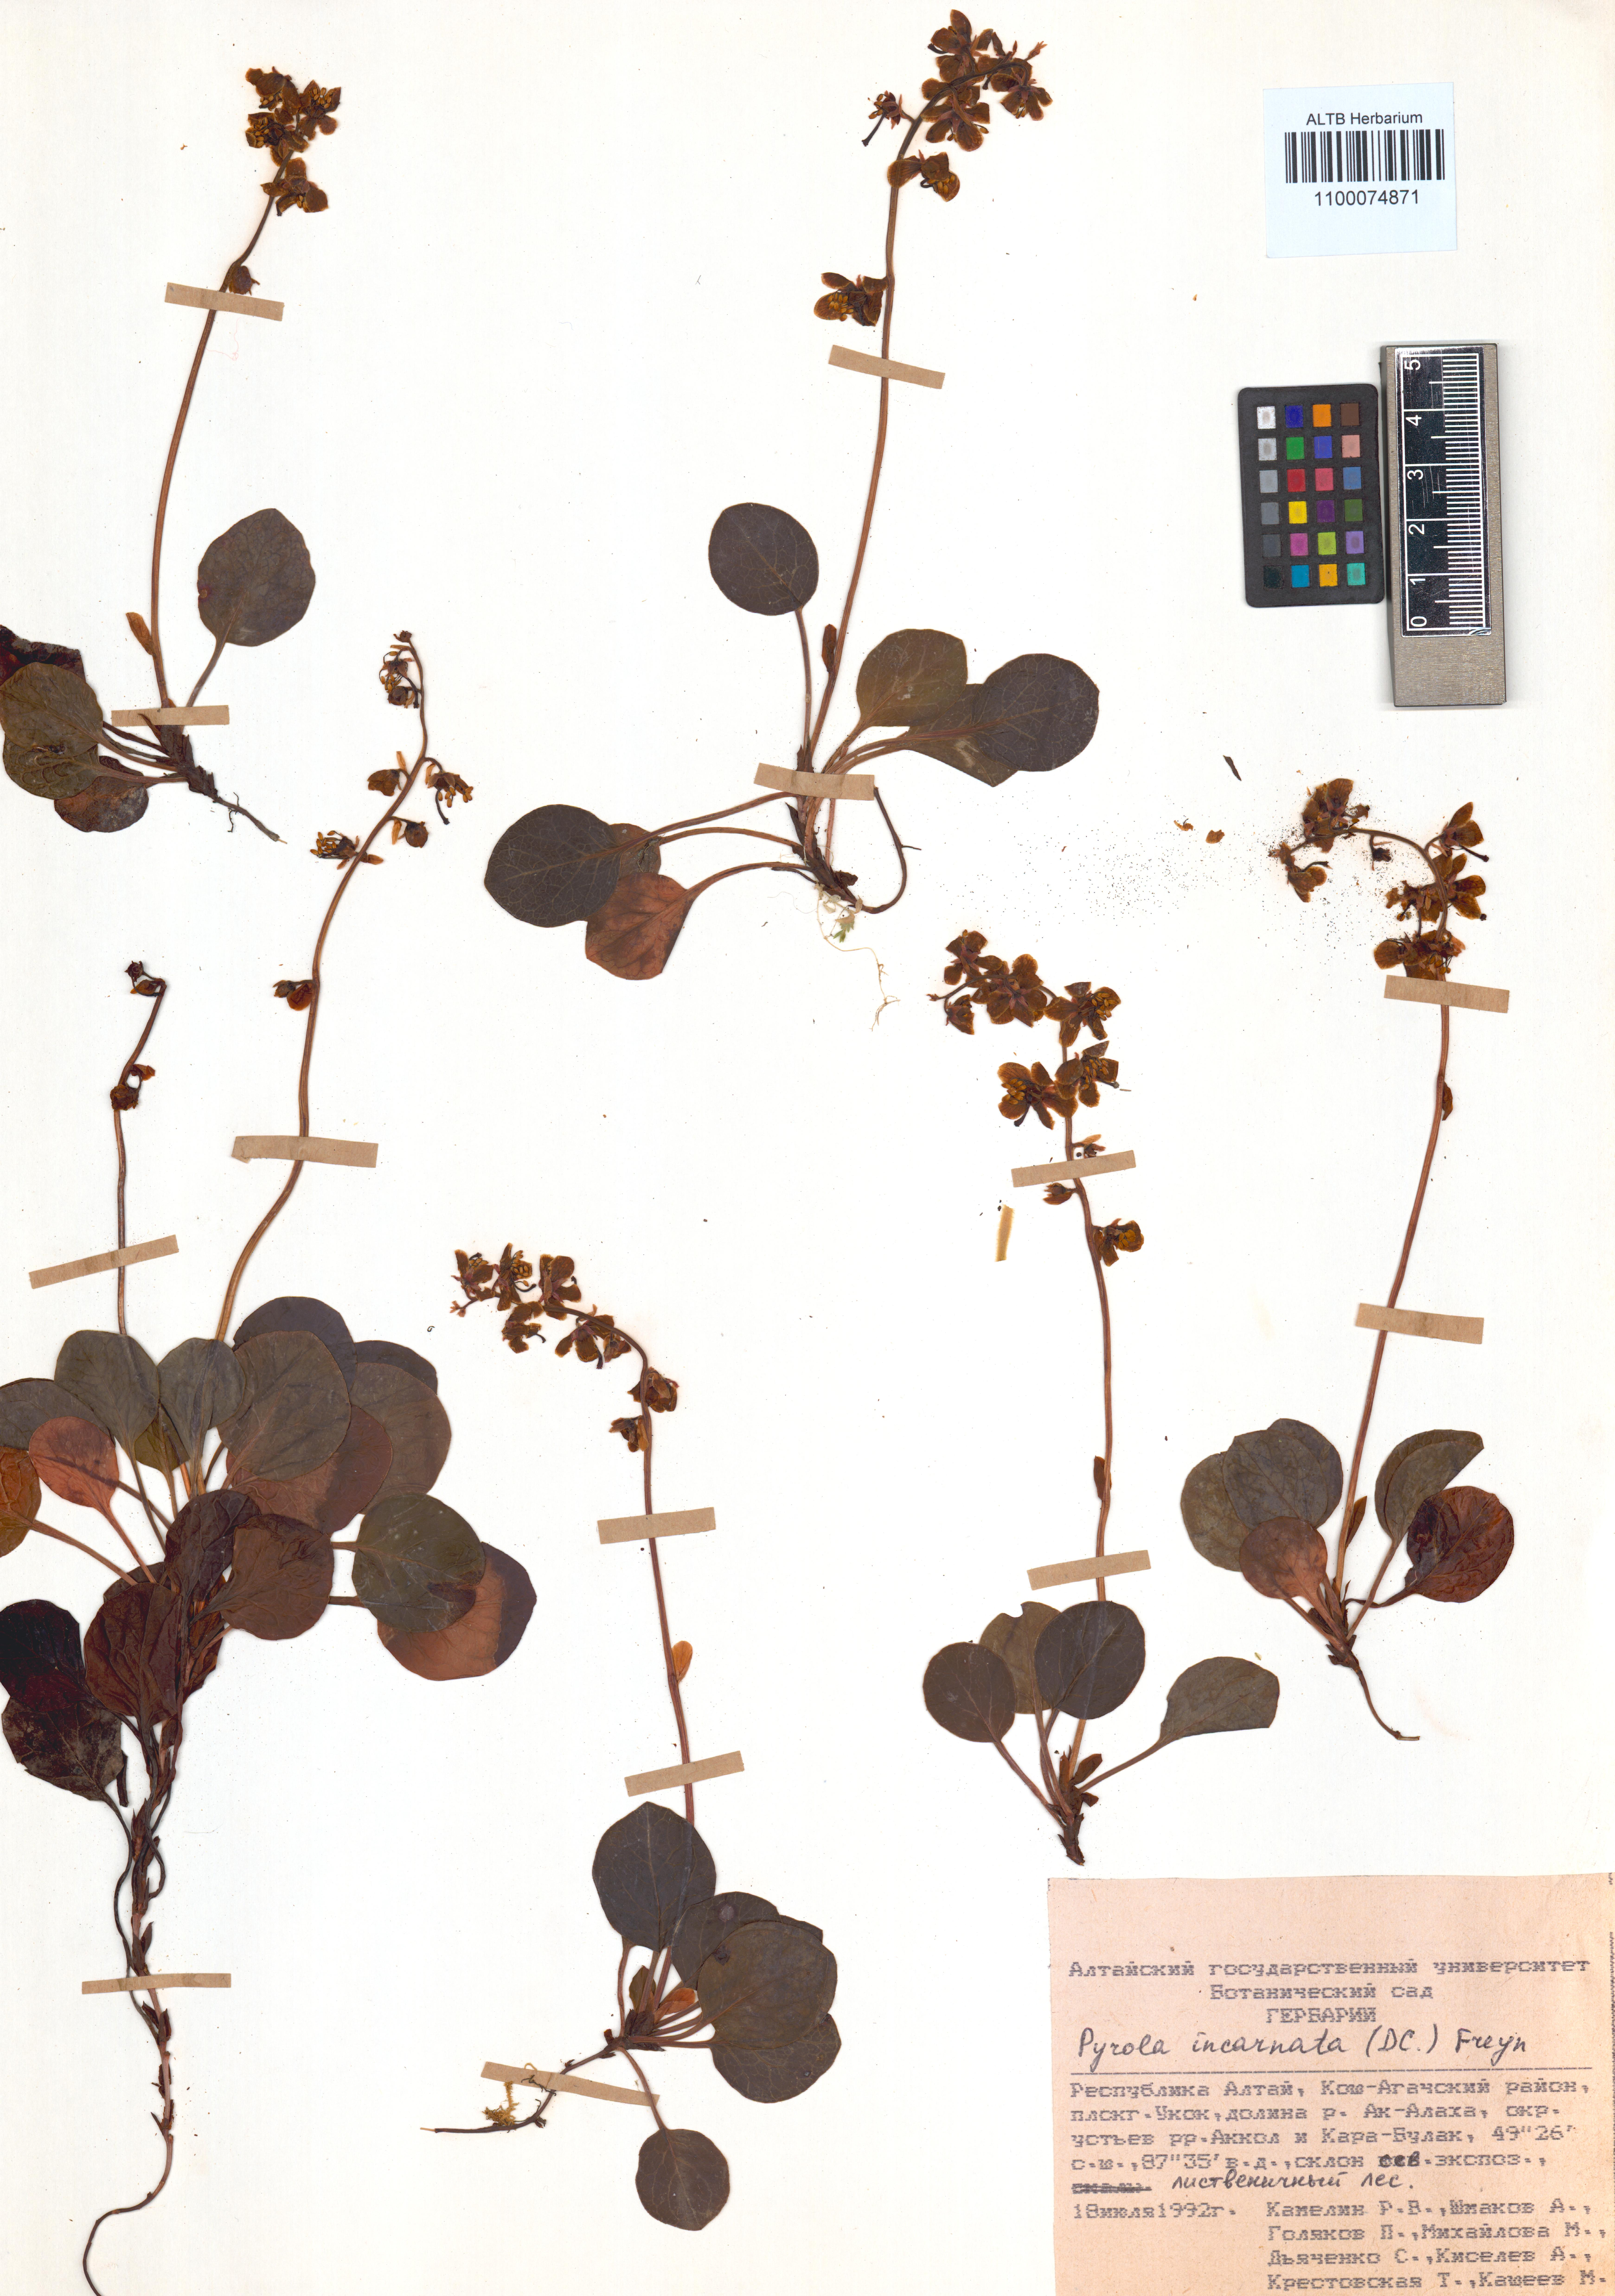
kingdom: Plantae
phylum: Tracheophyta
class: Magnoliopsida
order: Ericales
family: Ericaceae
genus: Pyrola
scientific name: Pyrola asarifolia
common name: Bog wintergreen
